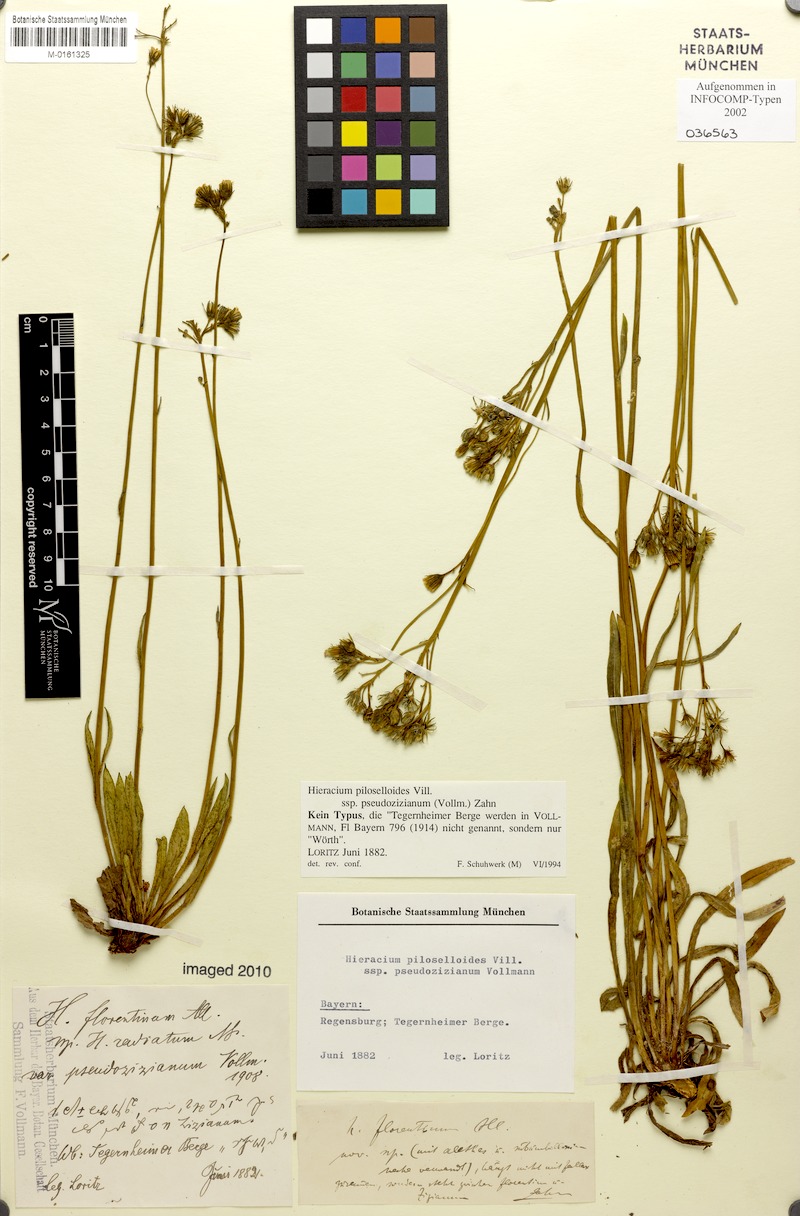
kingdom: Plantae
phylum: Tracheophyta
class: Magnoliopsida
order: Asterales
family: Asteraceae
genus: Pilosella
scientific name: Pilosella piloselloides
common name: Glaucous king-devil
